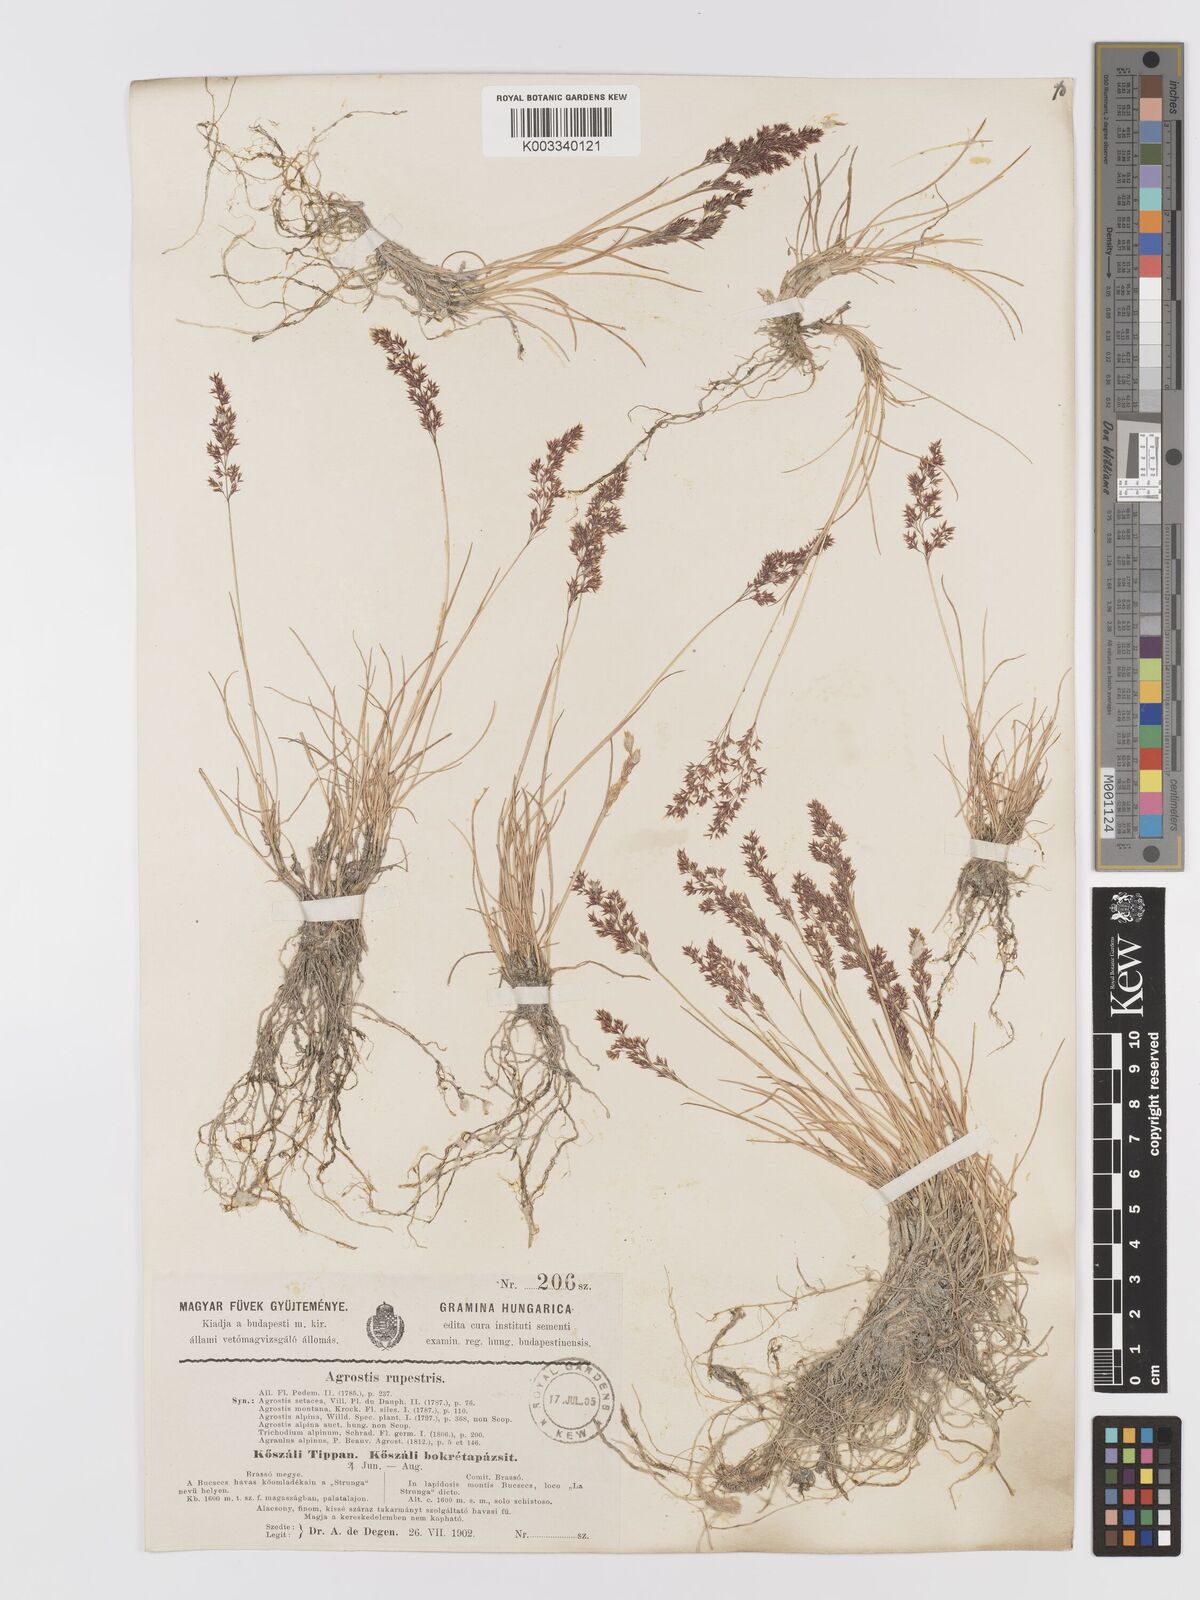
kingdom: Plantae
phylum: Tracheophyta
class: Liliopsida
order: Poales
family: Poaceae
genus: Agrostis
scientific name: Agrostis rupestris
